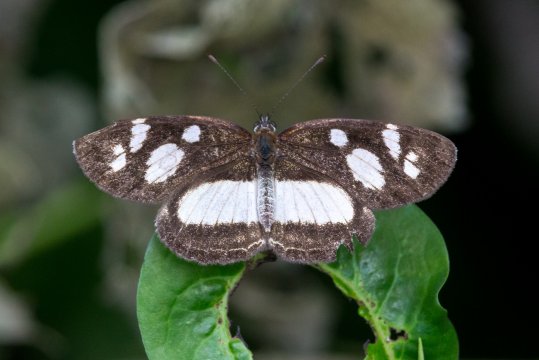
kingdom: Animalia
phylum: Arthropoda
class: Insecta
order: Lepidoptera
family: Nymphalidae
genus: Eresia
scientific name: Eresia clio
